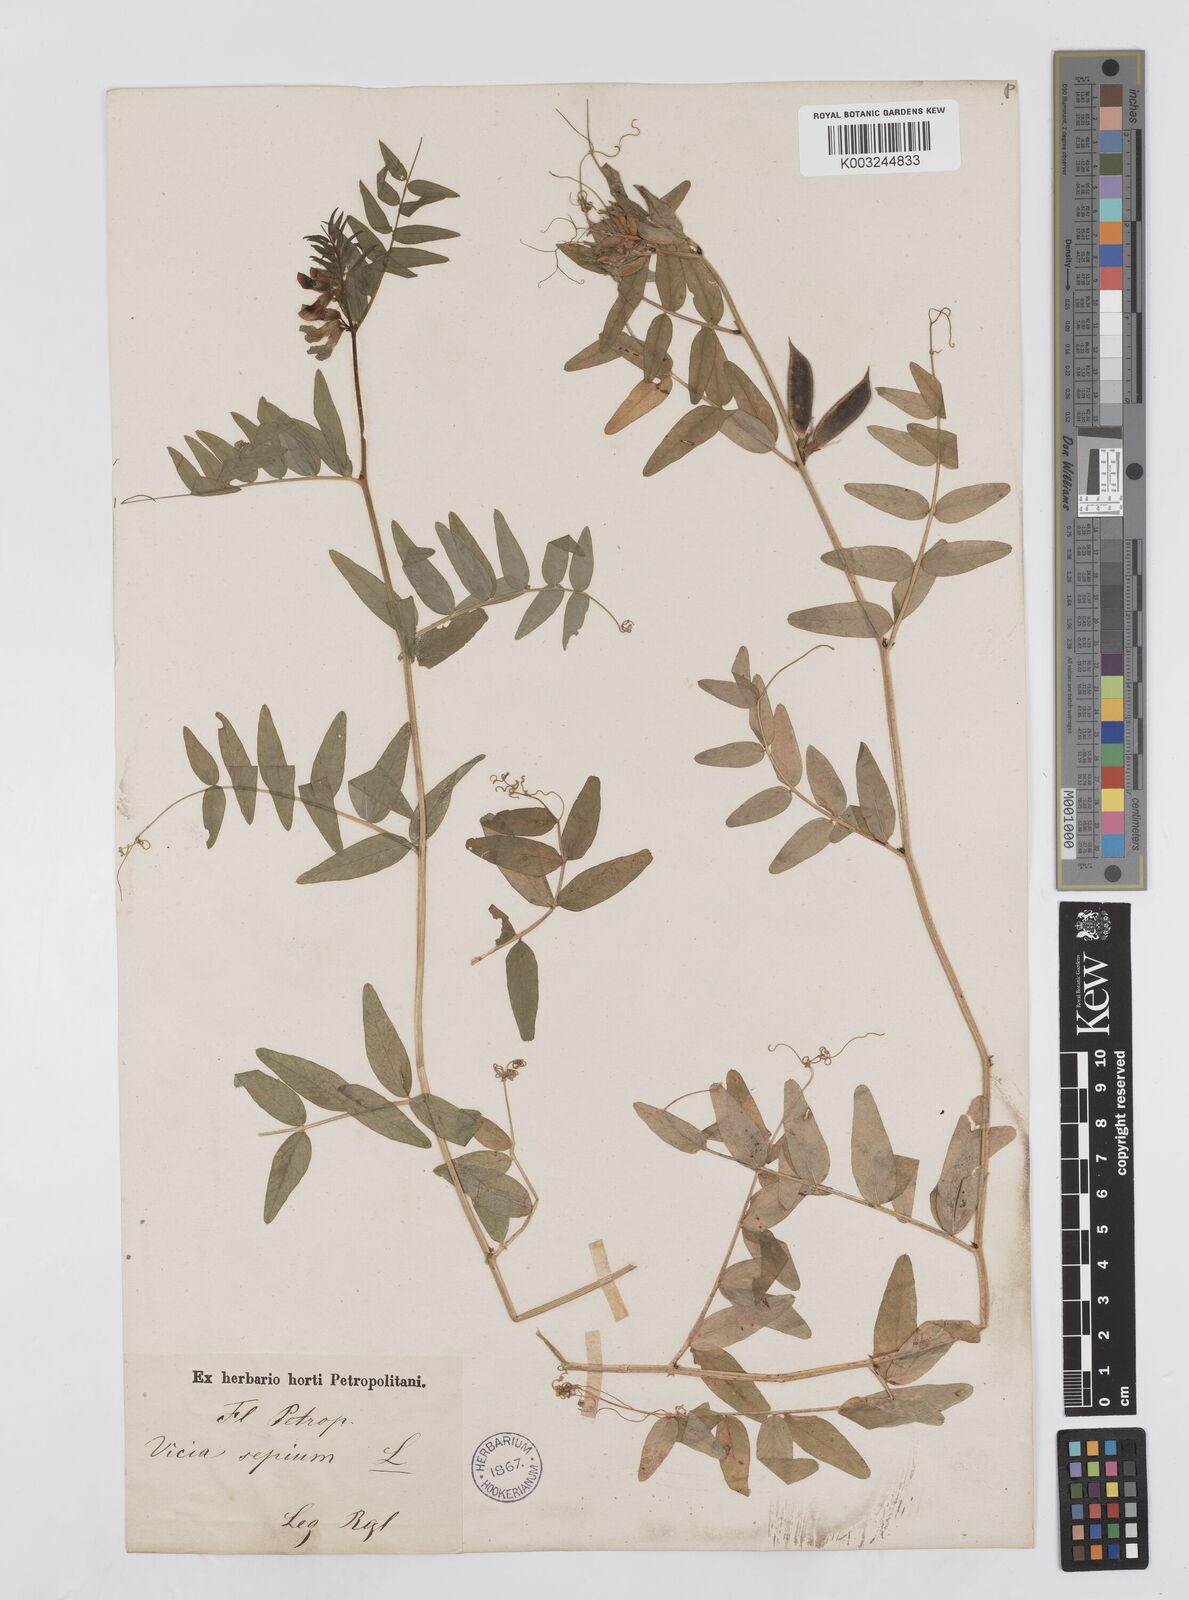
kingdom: Plantae
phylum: Tracheophyta
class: Magnoliopsida
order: Fabales
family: Fabaceae
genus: Vicia
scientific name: Vicia sepium
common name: Bush vetch
